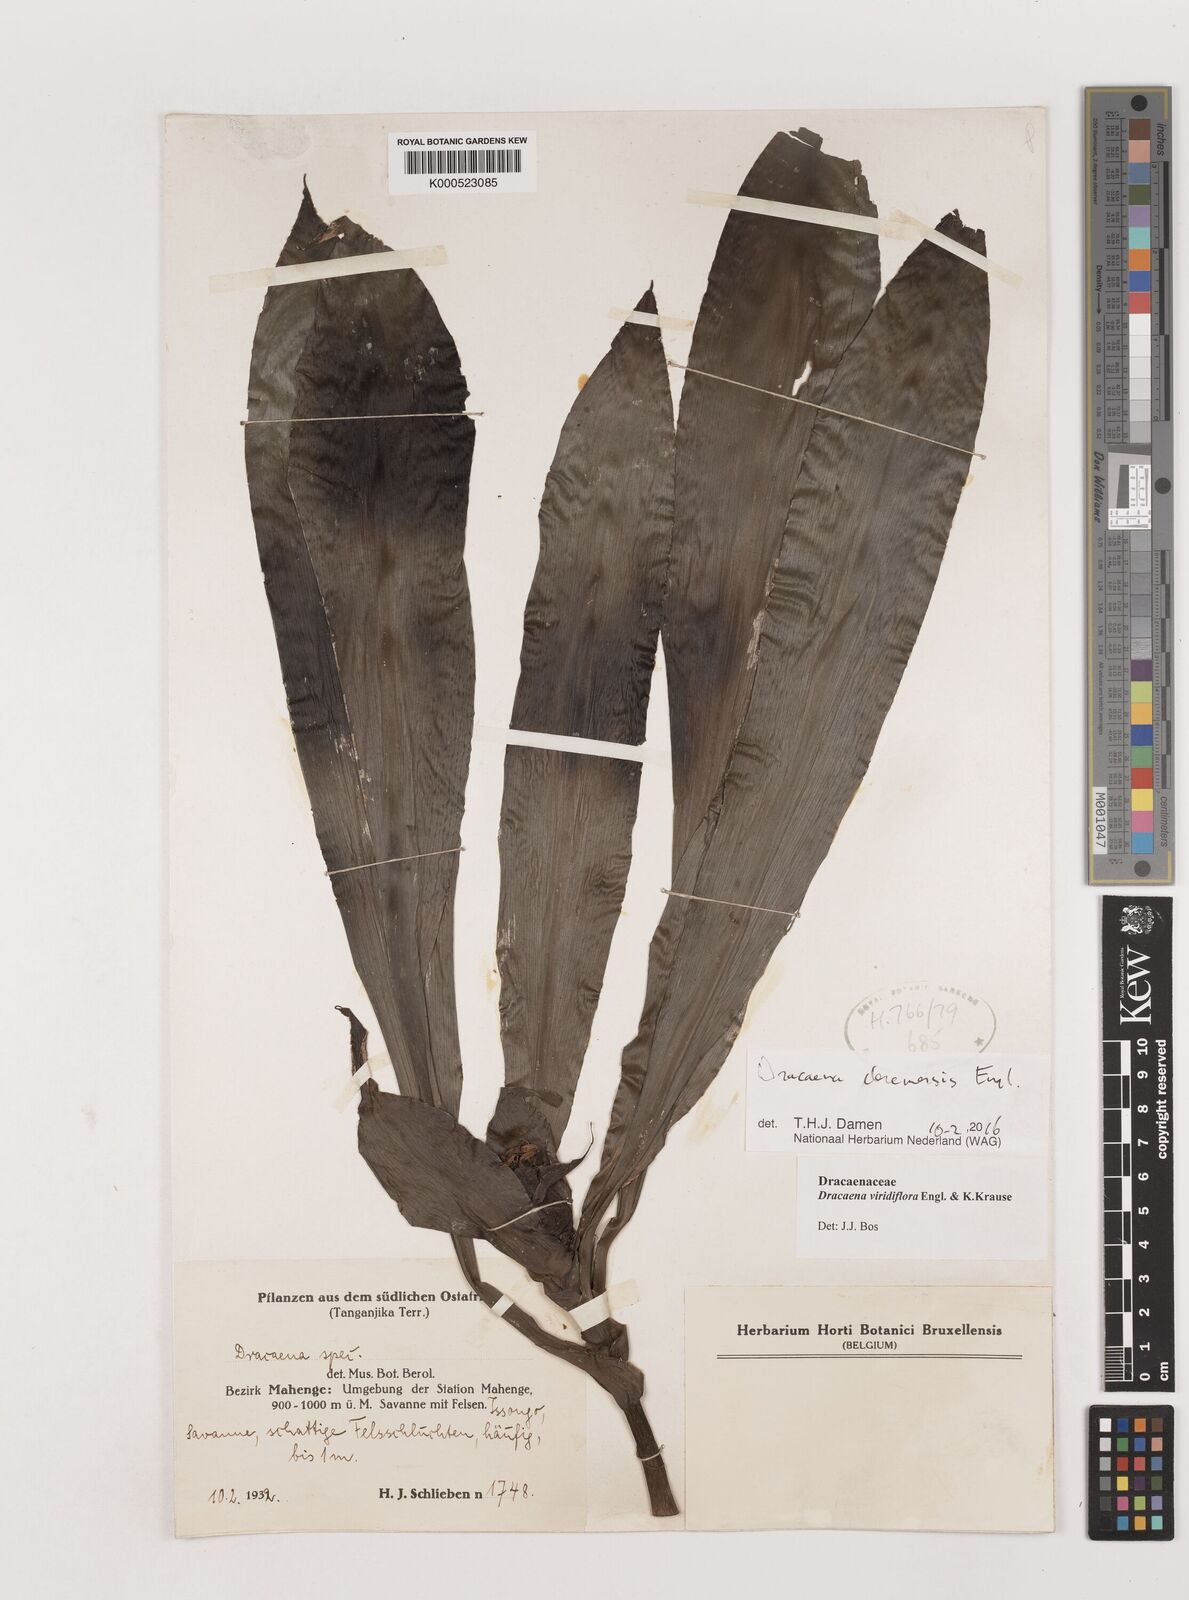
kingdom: Plantae
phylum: Tracheophyta
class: Liliopsida
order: Asparagales
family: Asparagaceae
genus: Dracaena
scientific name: Dracaena fragrans
